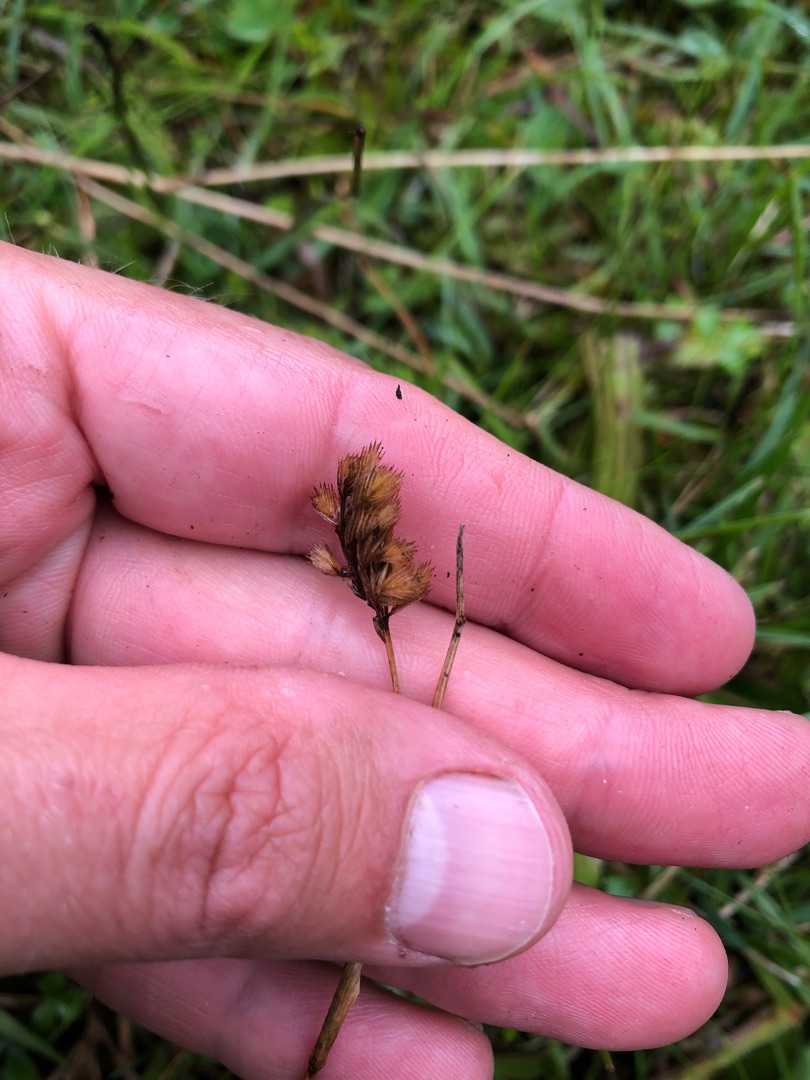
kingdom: Plantae
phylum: Tracheophyta
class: Liliopsida
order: Poales
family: Poaceae
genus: Cynosurus
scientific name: Cynosurus cristatus
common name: Kamgræs
